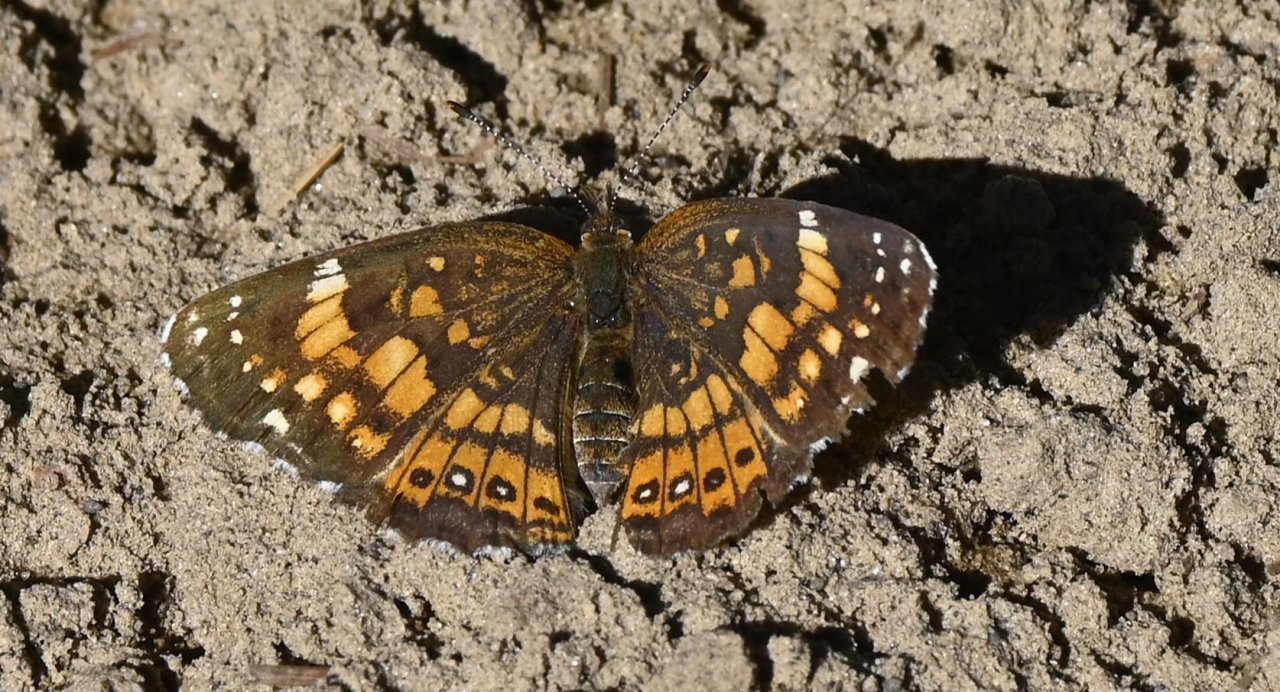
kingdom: Animalia
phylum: Arthropoda
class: Insecta
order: Lepidoptera
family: Nymphalidae
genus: Chlosyne
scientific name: Chlosyne nycteis
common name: Silvery Checkerspot
